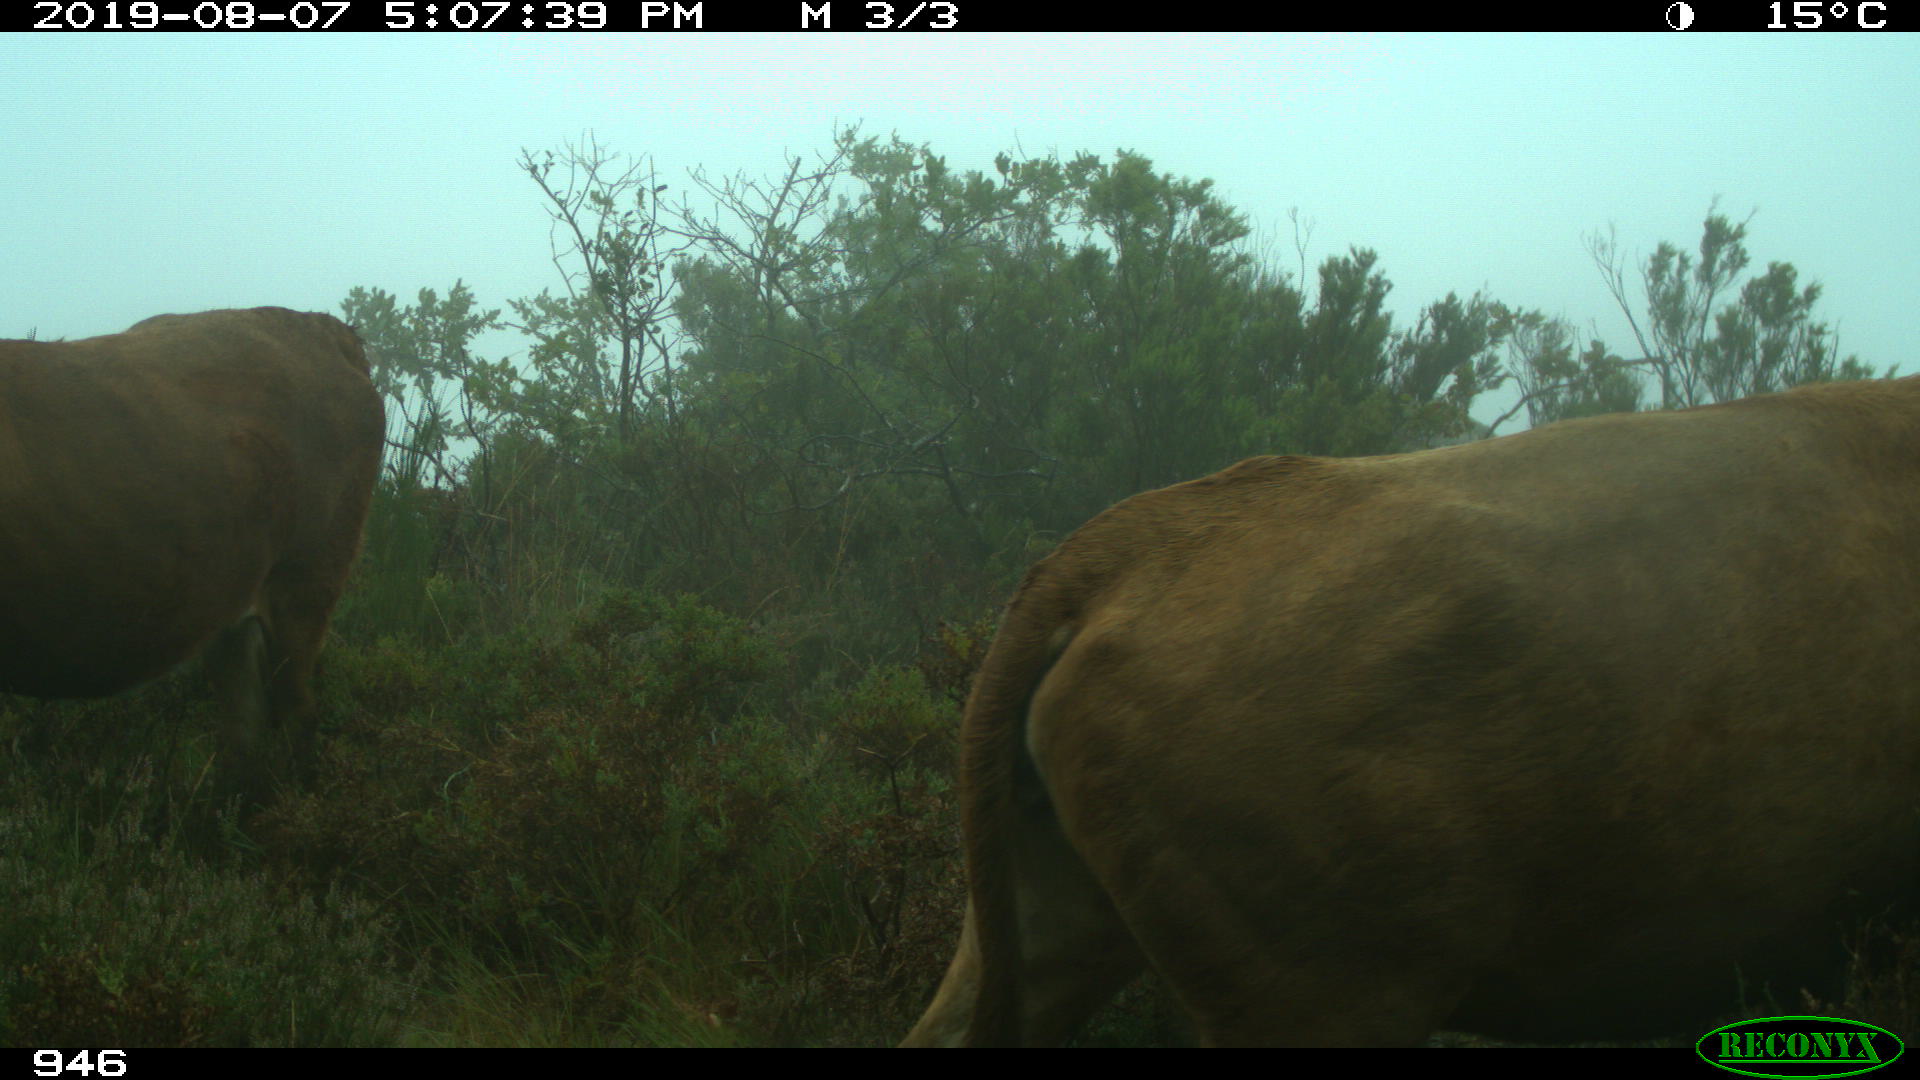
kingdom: Animalia
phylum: Chordata
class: Mammalia
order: Artiodactyla
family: Bovidae
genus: Bos
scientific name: Bos taurus
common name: Domesticated cattle
